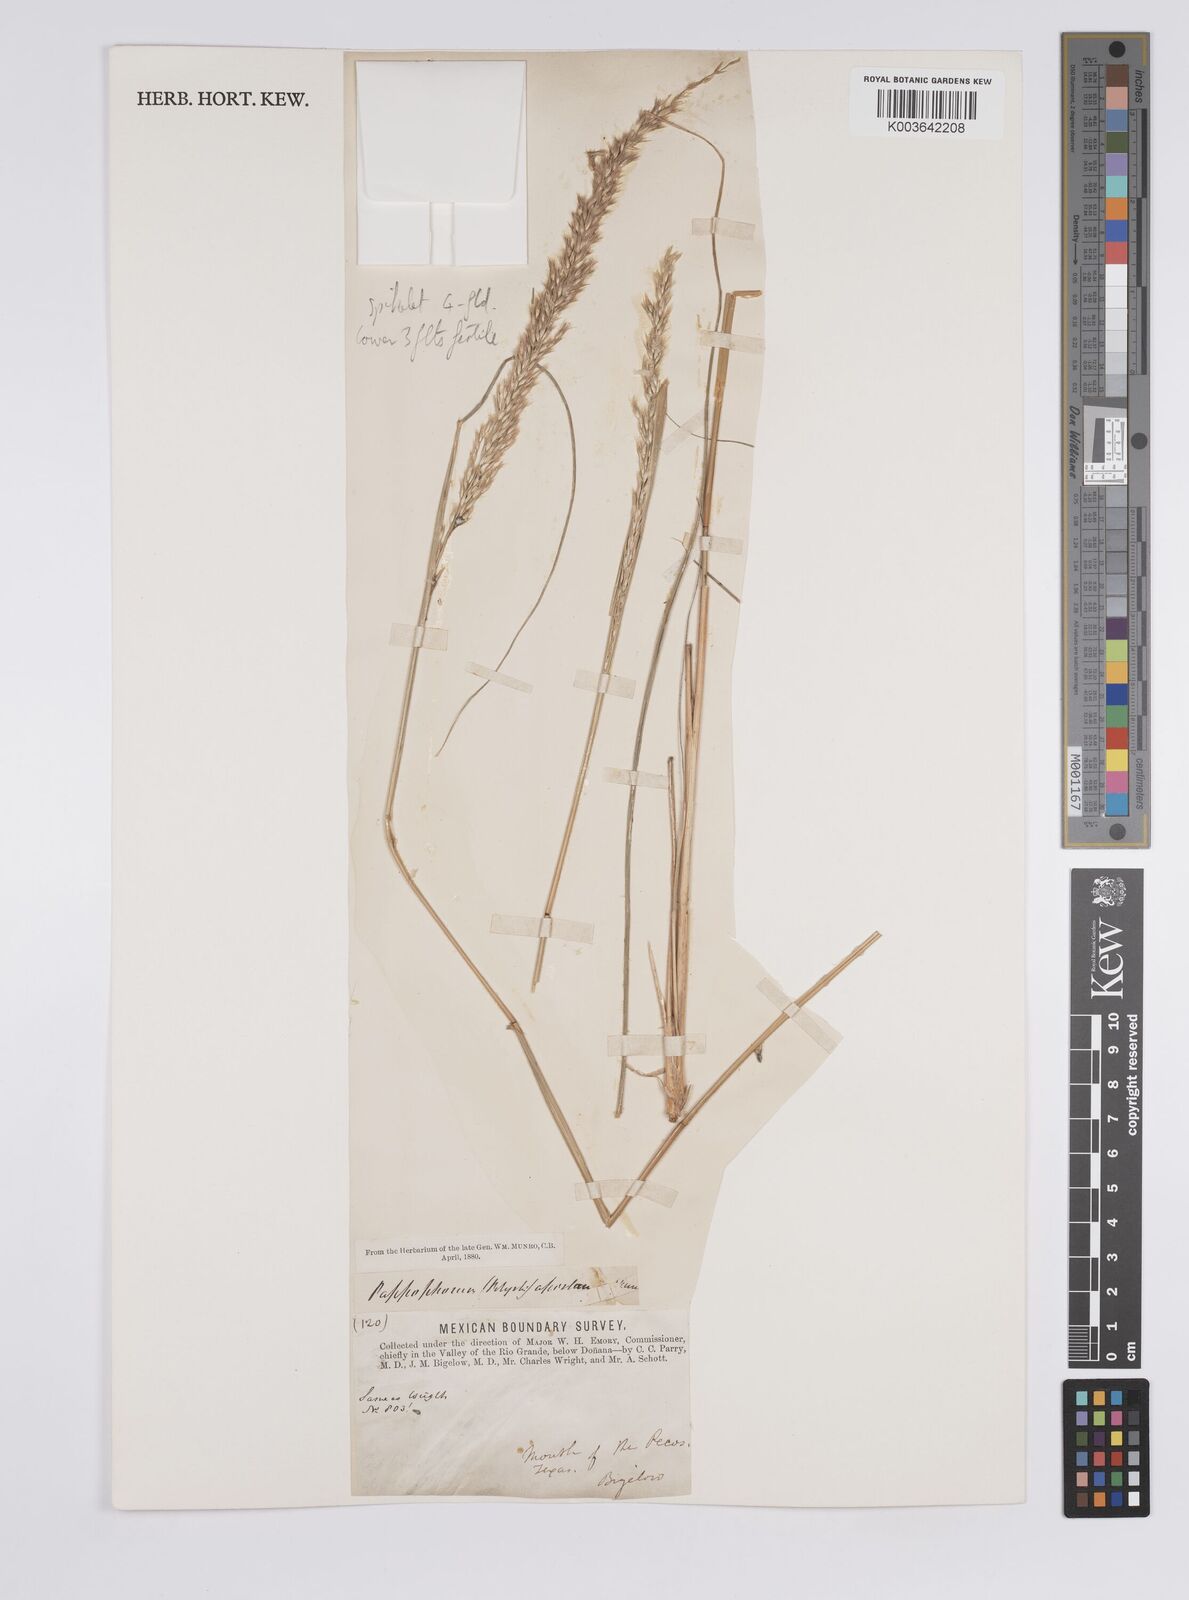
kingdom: Plantae
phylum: Tracheophyta
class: Liliopsida
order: Poales
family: Poaceae
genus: Pappophorum
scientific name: Pappophorum bicolor
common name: Pink pappus grass
